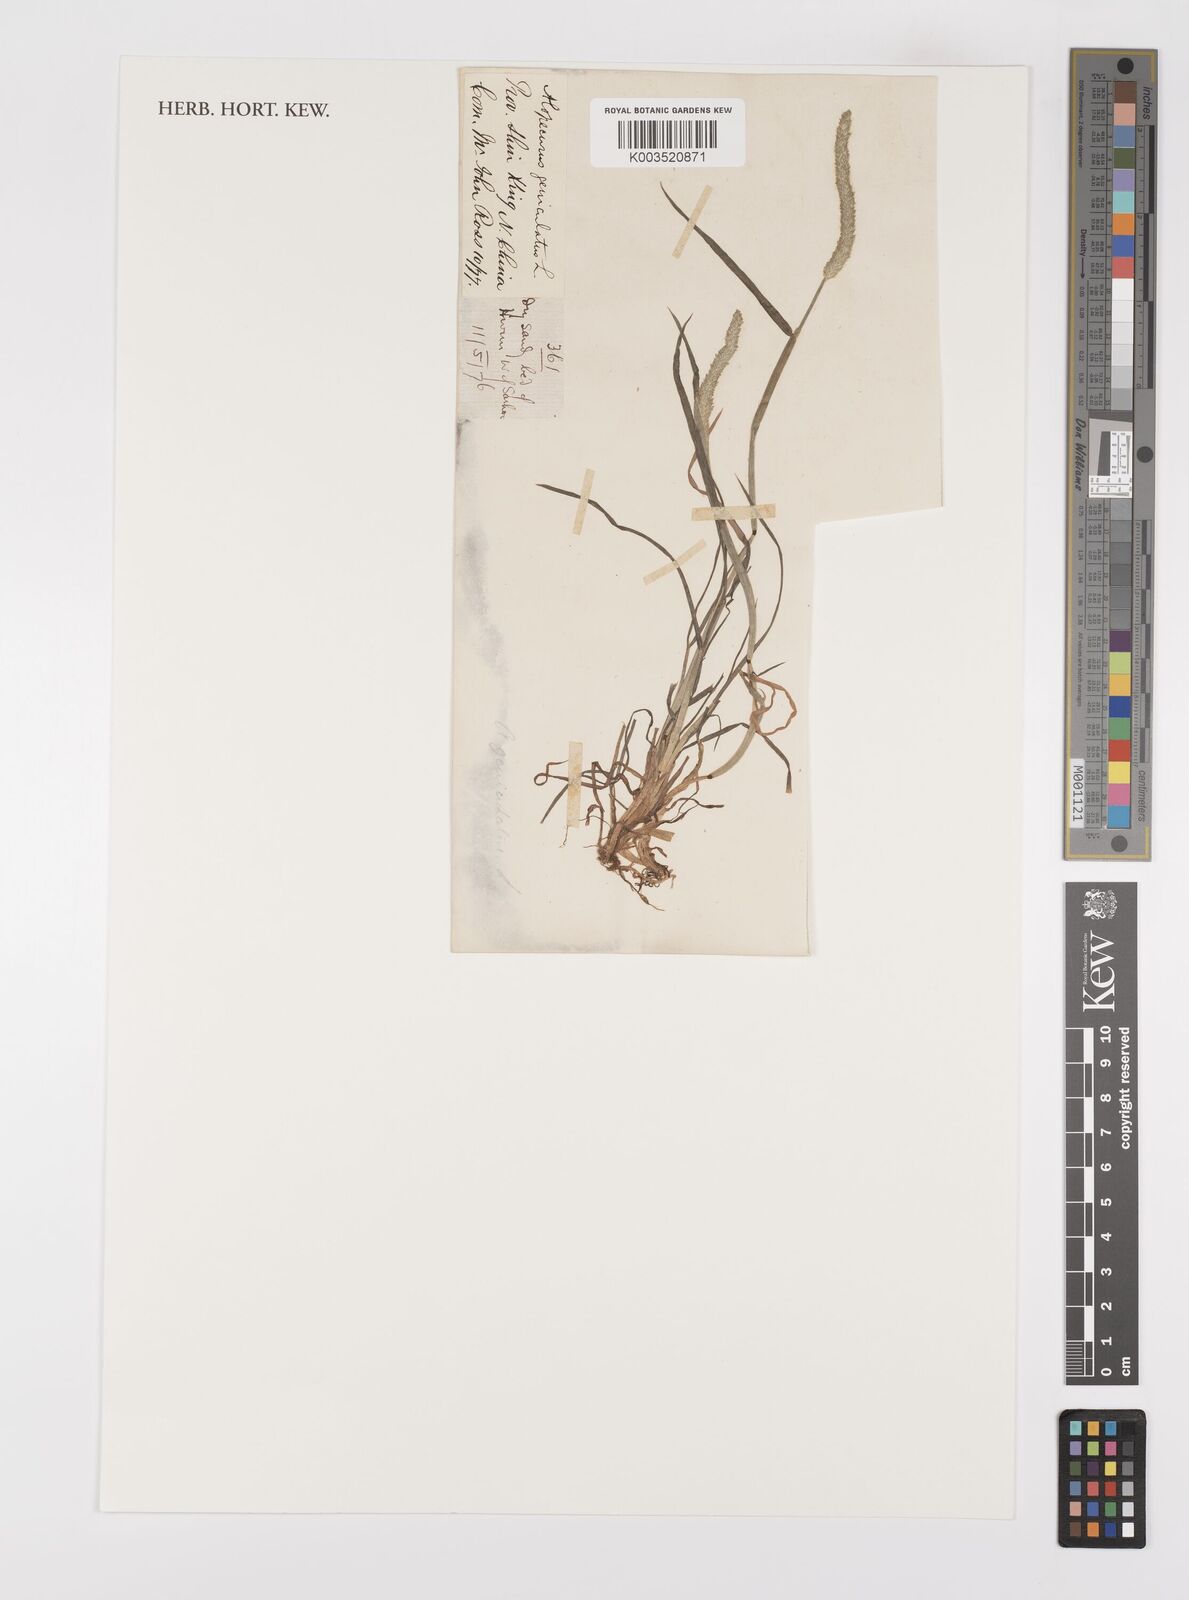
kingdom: Plantae
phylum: Tracheophyta
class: Liliopsida
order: Poales
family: Poaceae
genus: Alopecurus
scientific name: Alopecurus aequalis
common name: Orange foxtail
